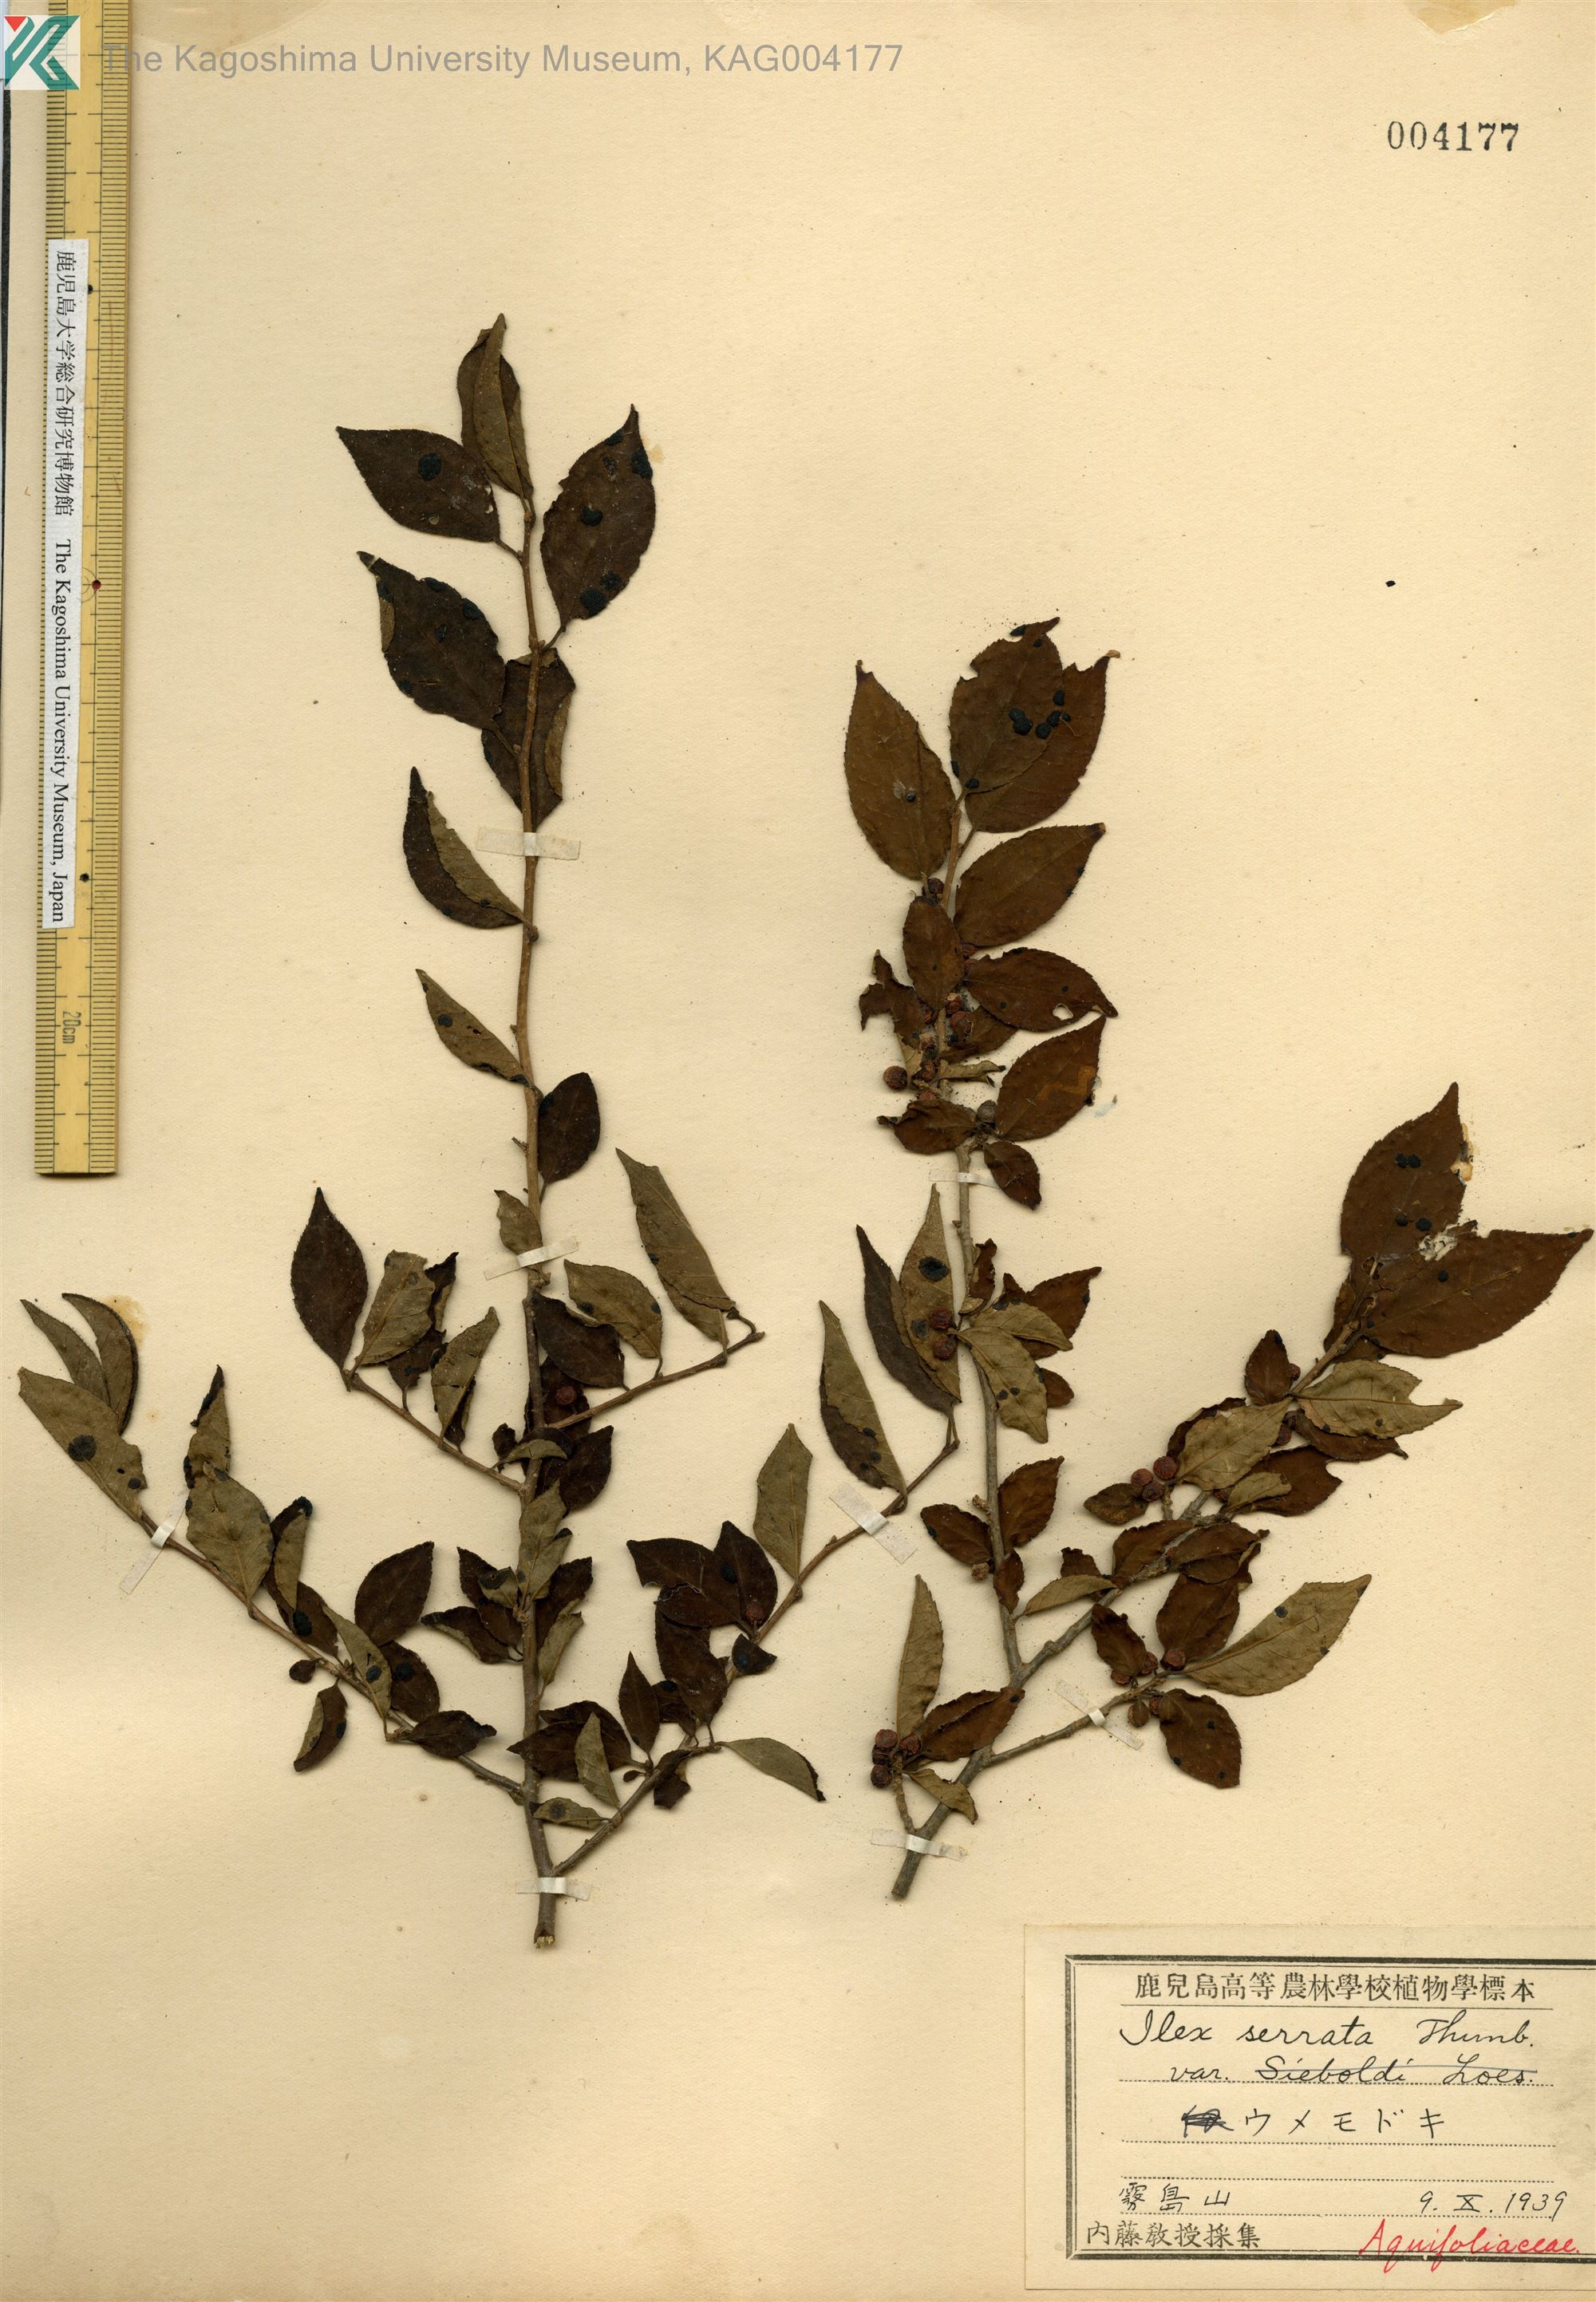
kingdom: Plantae
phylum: Tracheophyta
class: Magnoliopsida
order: Aquifoliales
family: Aquifoliaceae
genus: Ilex
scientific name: Ilex serrata
